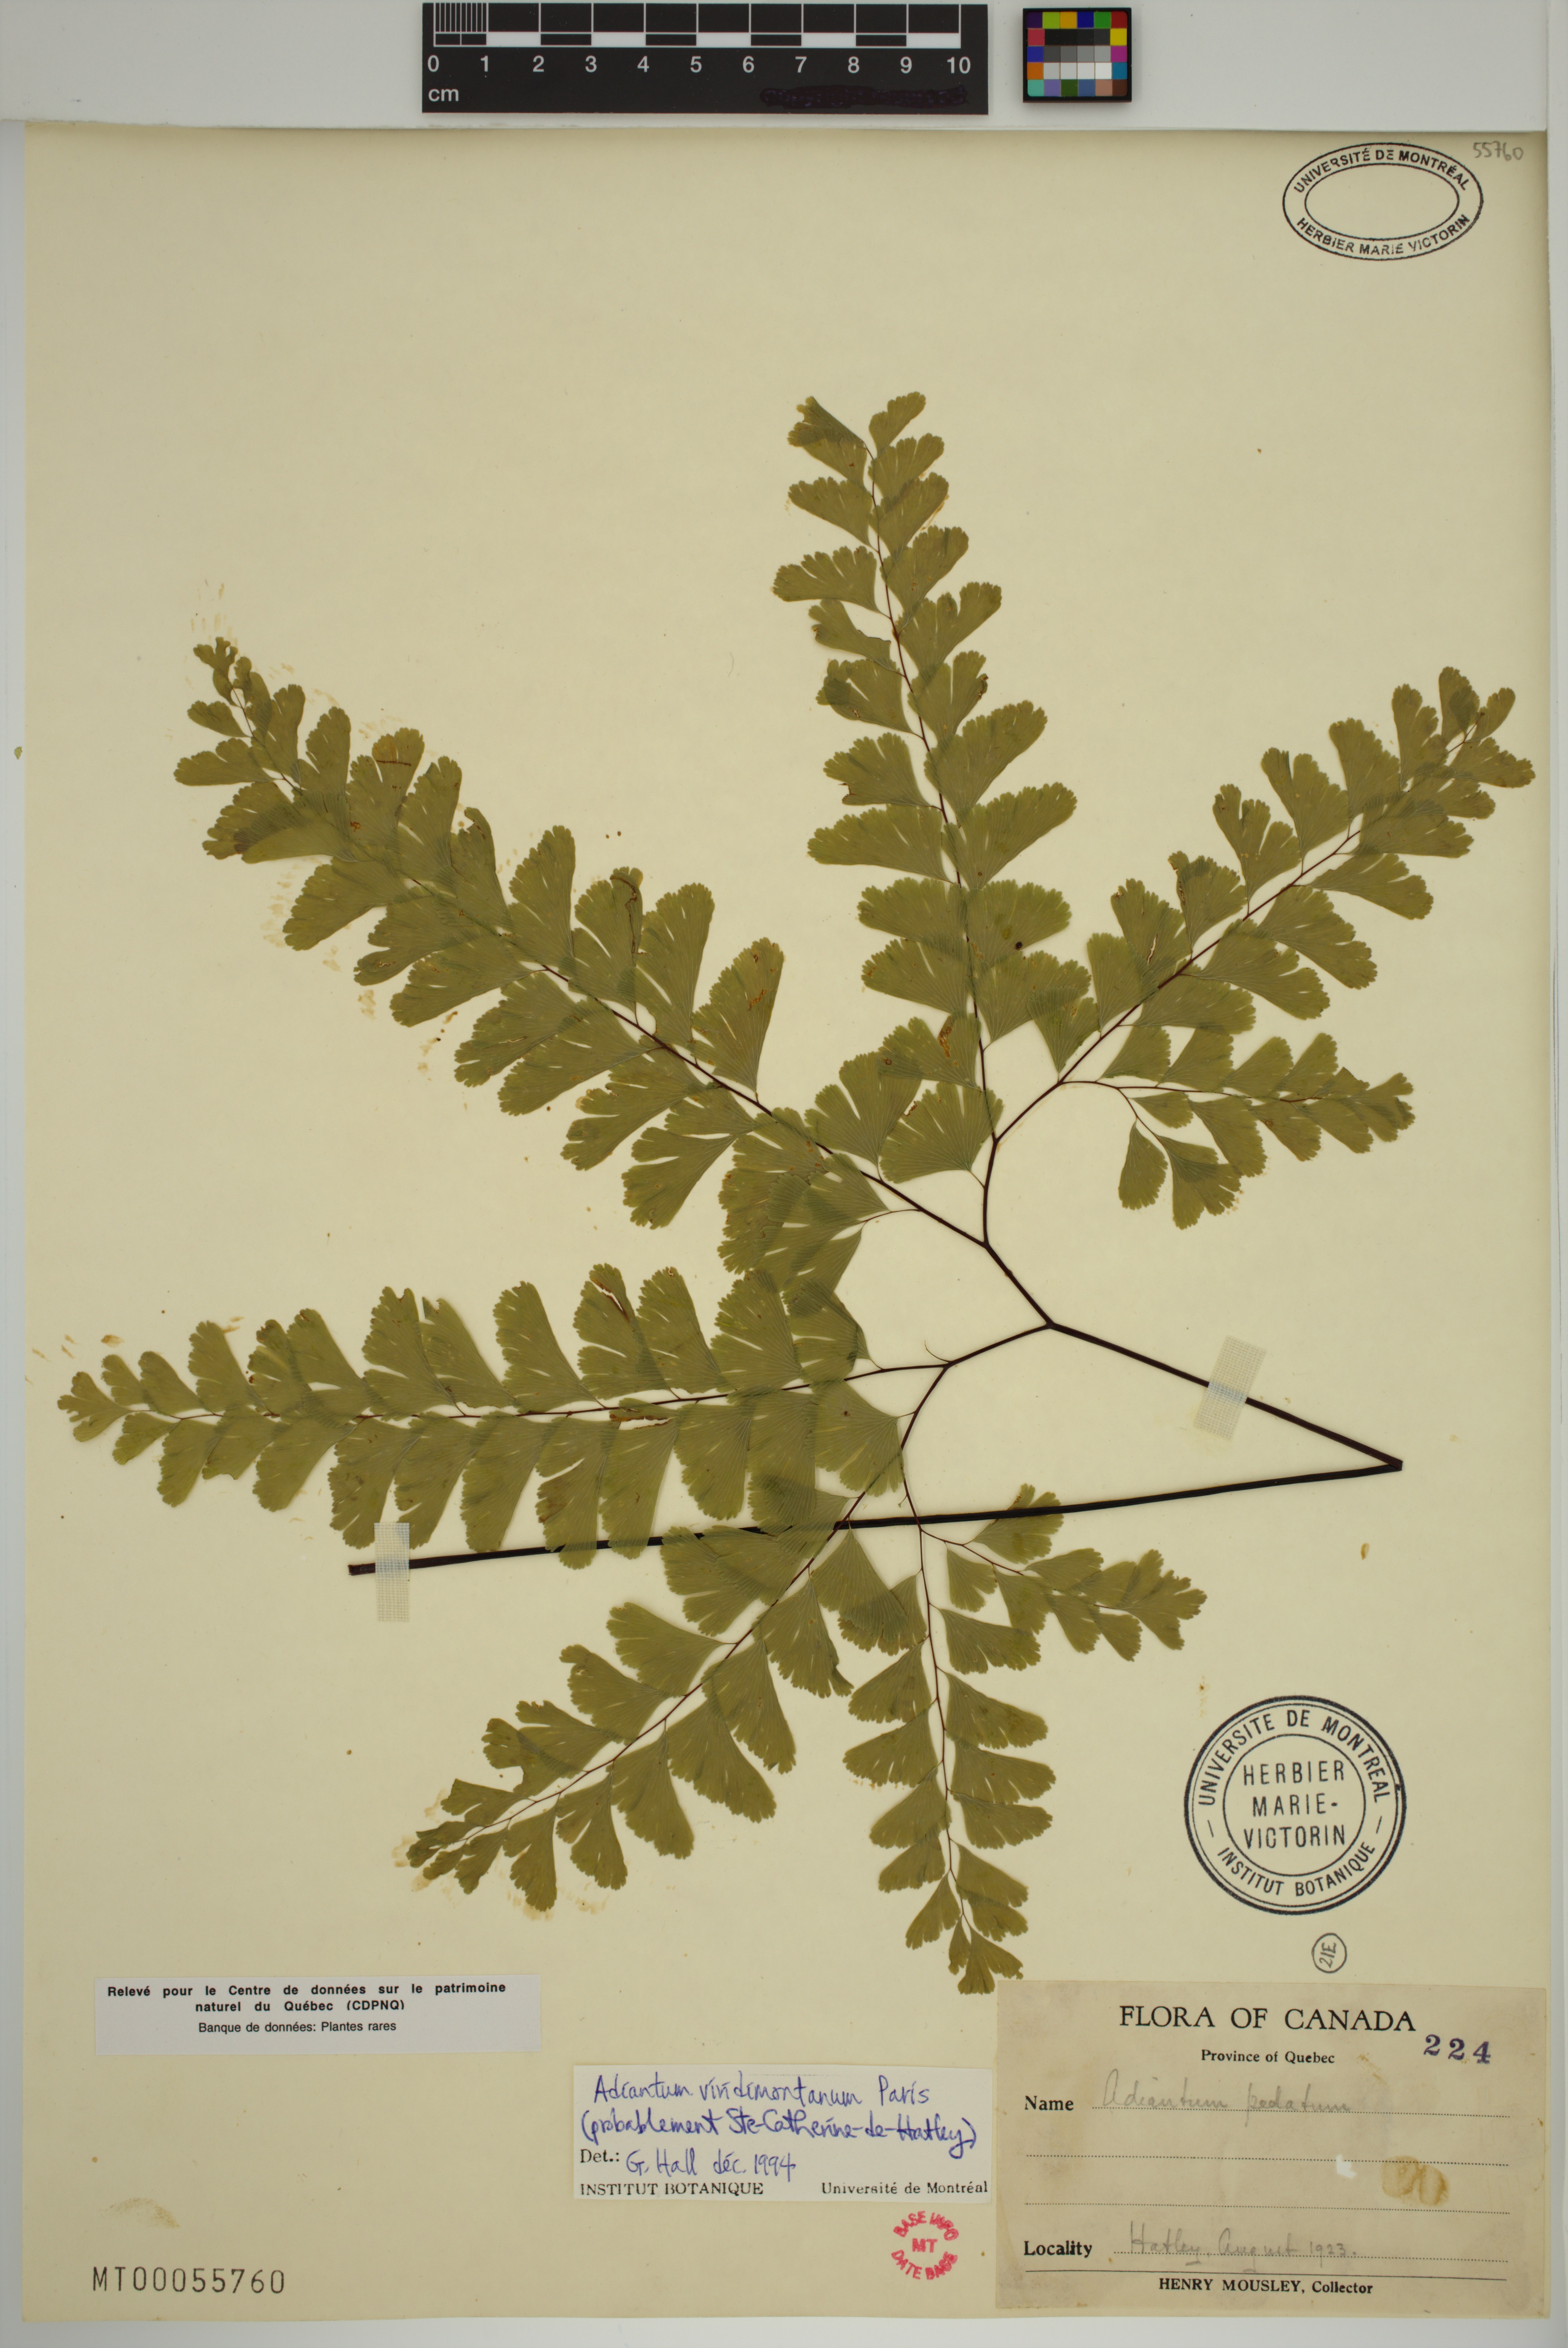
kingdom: Plantae
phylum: Tracheophyta
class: Polypodiopsida
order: Polypodiales
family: Pteridaceae
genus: Adiantum
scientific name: Adiantum viridimontanum
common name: Green mountain maidenhair
